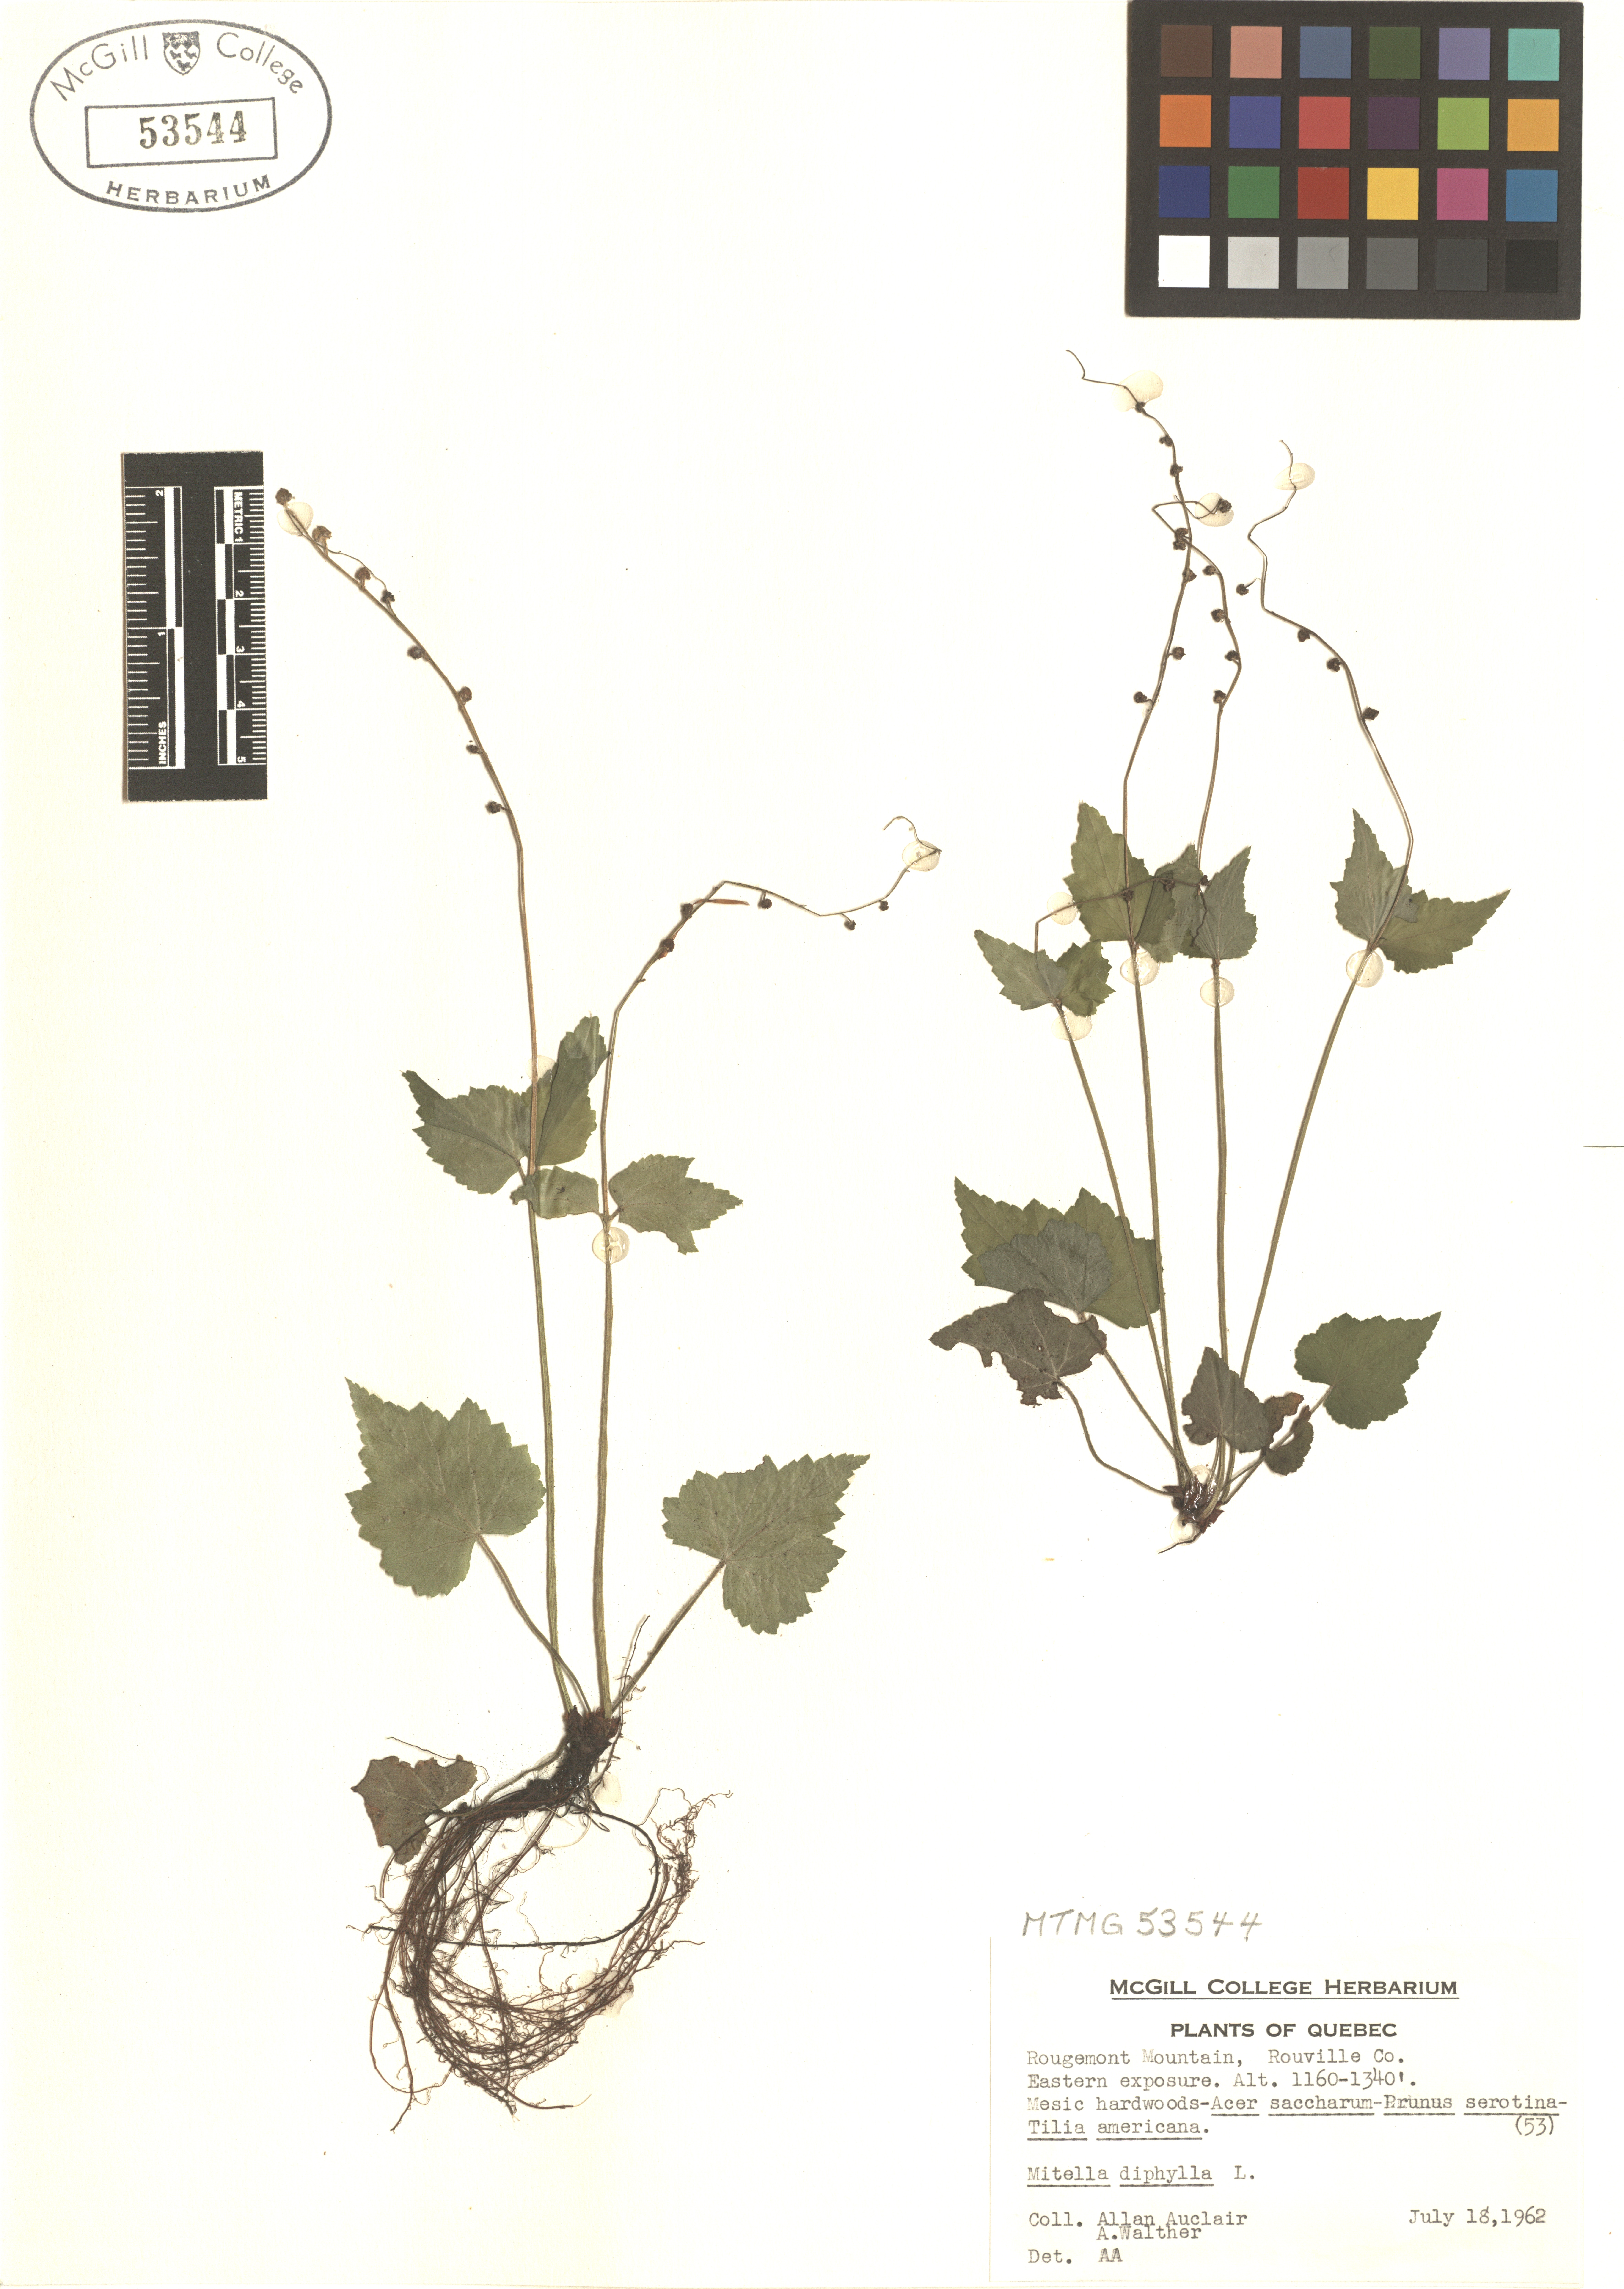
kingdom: Plantae
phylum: Tracheophyta
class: Magnoliopsida
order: Saxifragales
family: Saxifragaceae
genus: Mitella
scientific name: Mitella diphylla
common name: Coolwort
